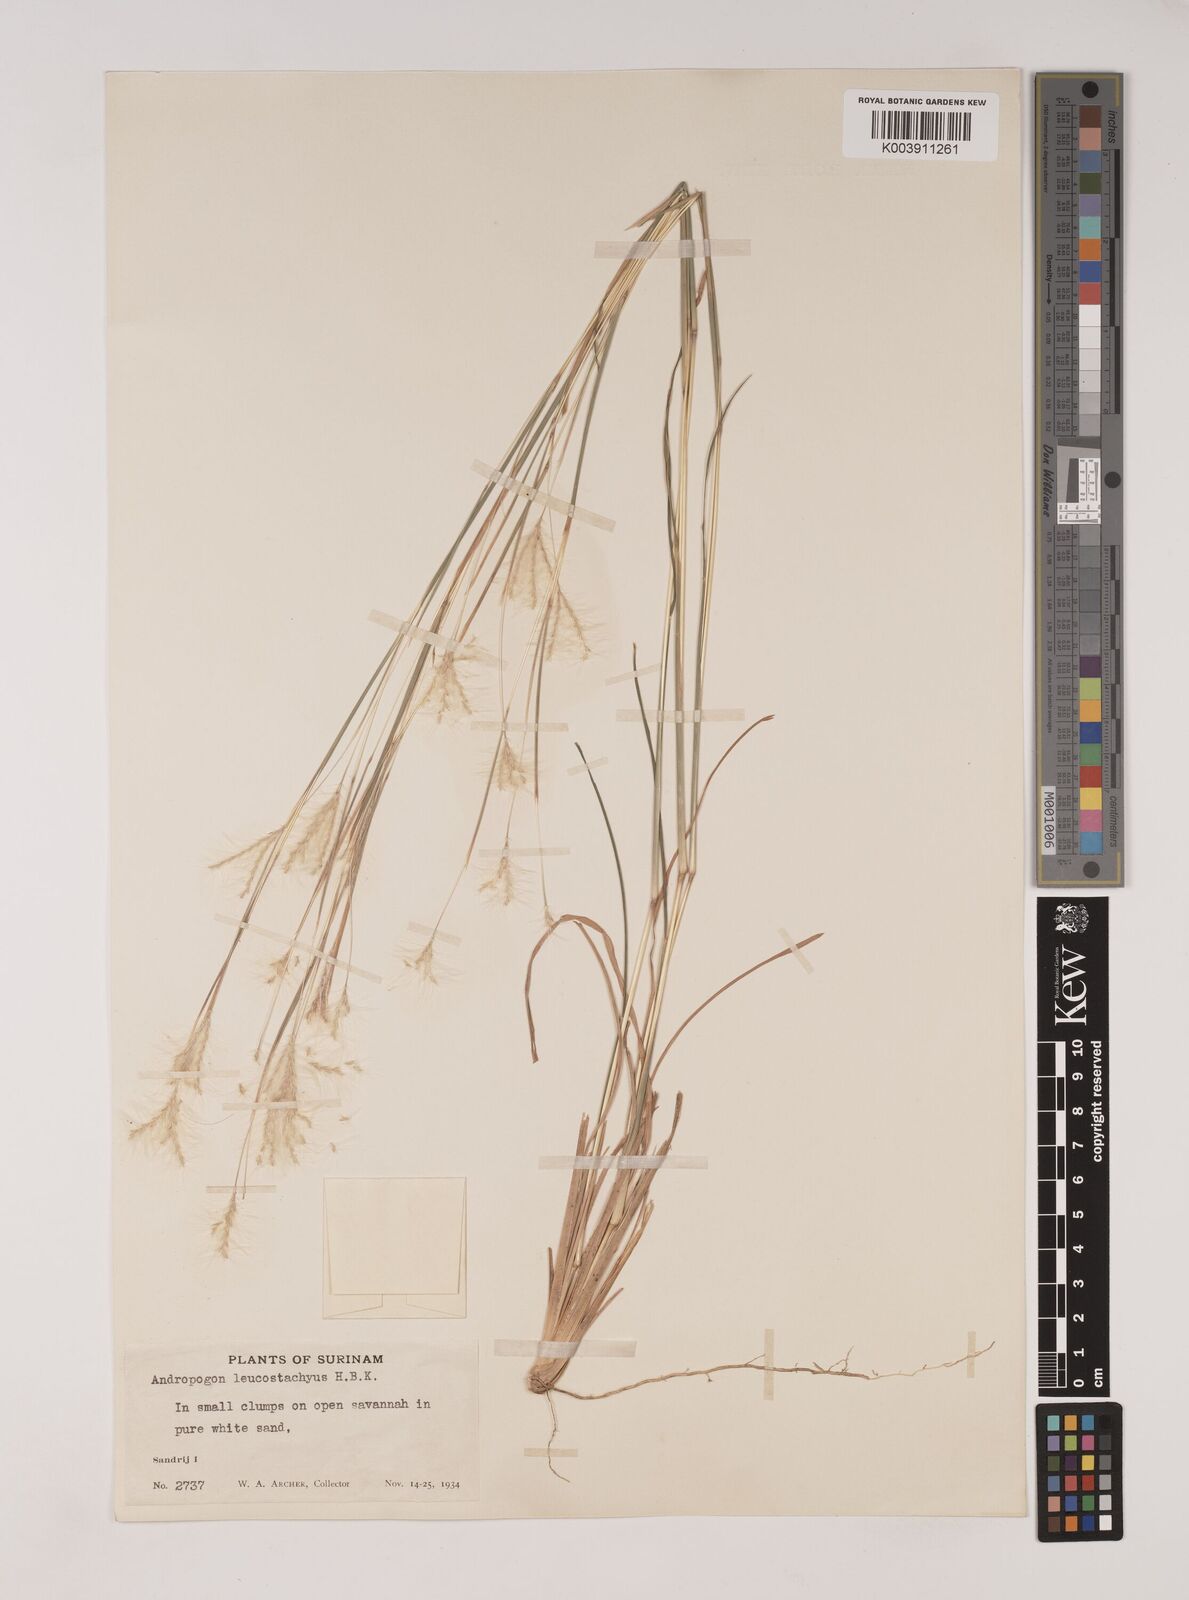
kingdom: Plantae
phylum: Tracheophyta
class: Liliopsida
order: Poales
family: Poaceae
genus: Andropogon
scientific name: Andropogon leucostachyus
